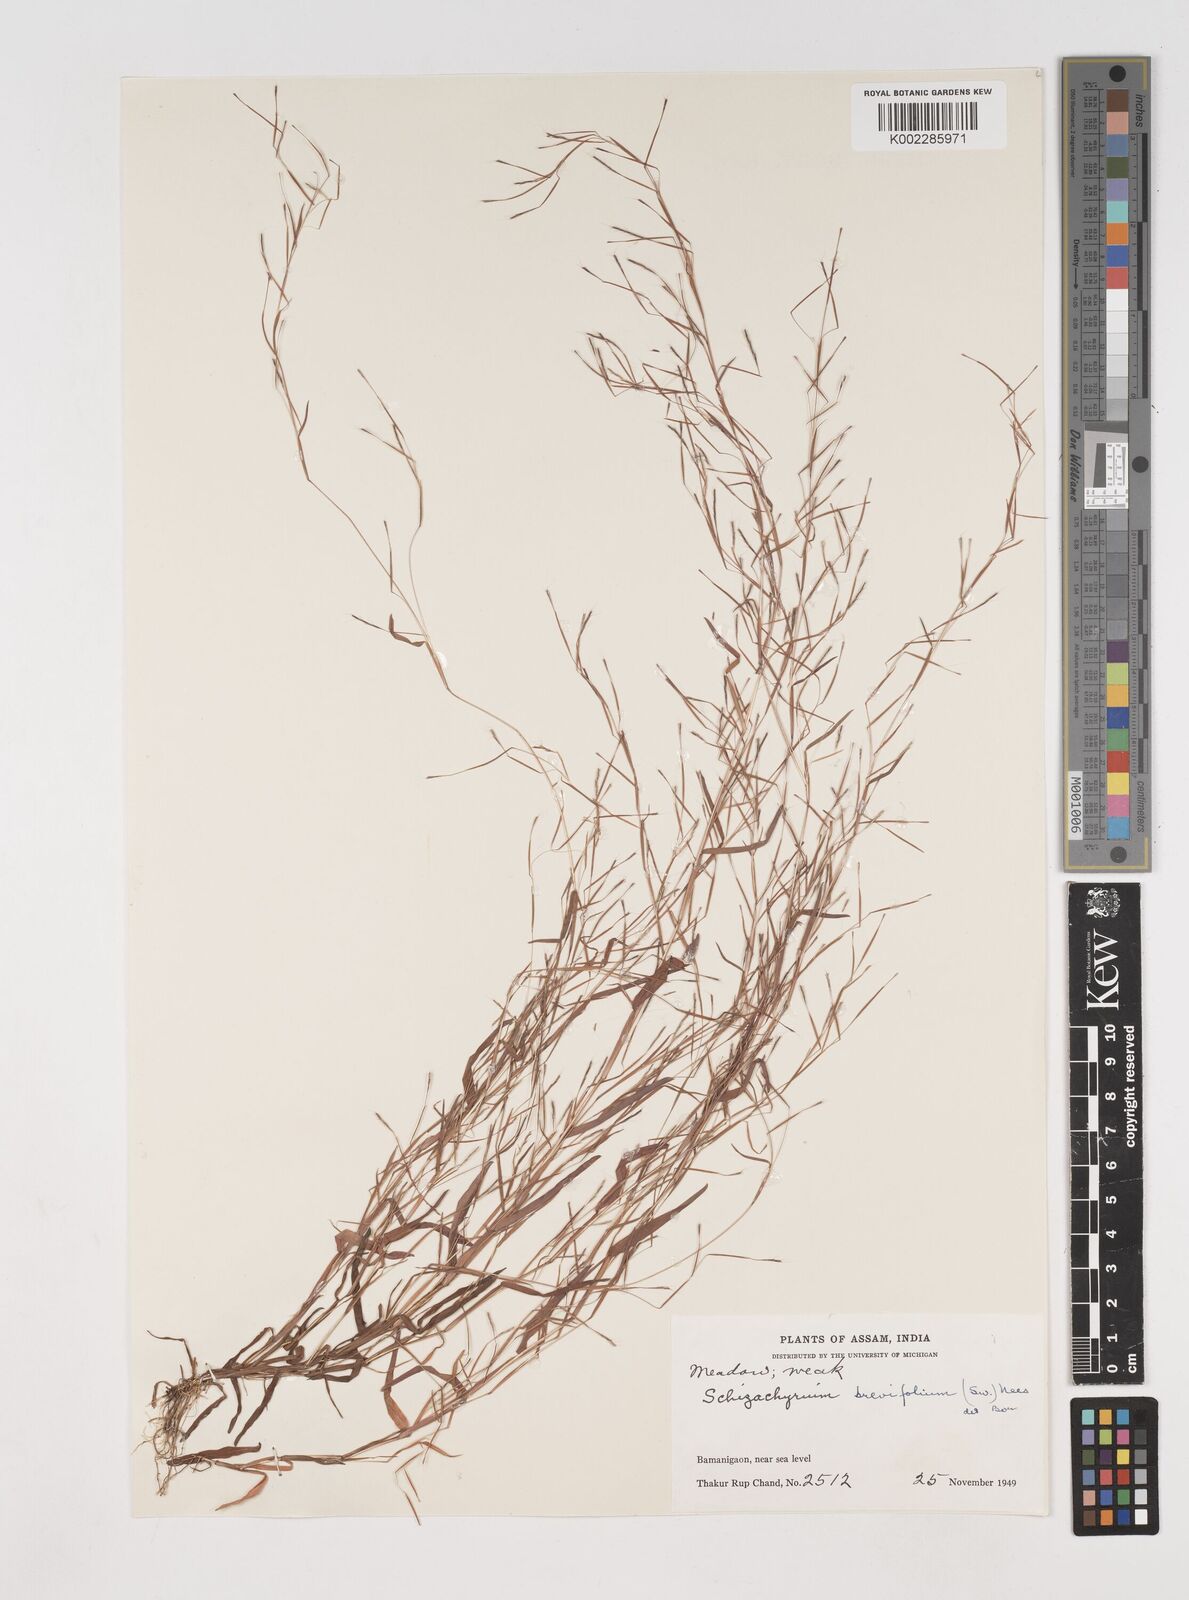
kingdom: Plantae
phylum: Tracheophyta
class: Liliopsida
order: Poales
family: Poaceae
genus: Schizachyrium
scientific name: Schizachyrium brevifolium
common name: Serillo dulce
